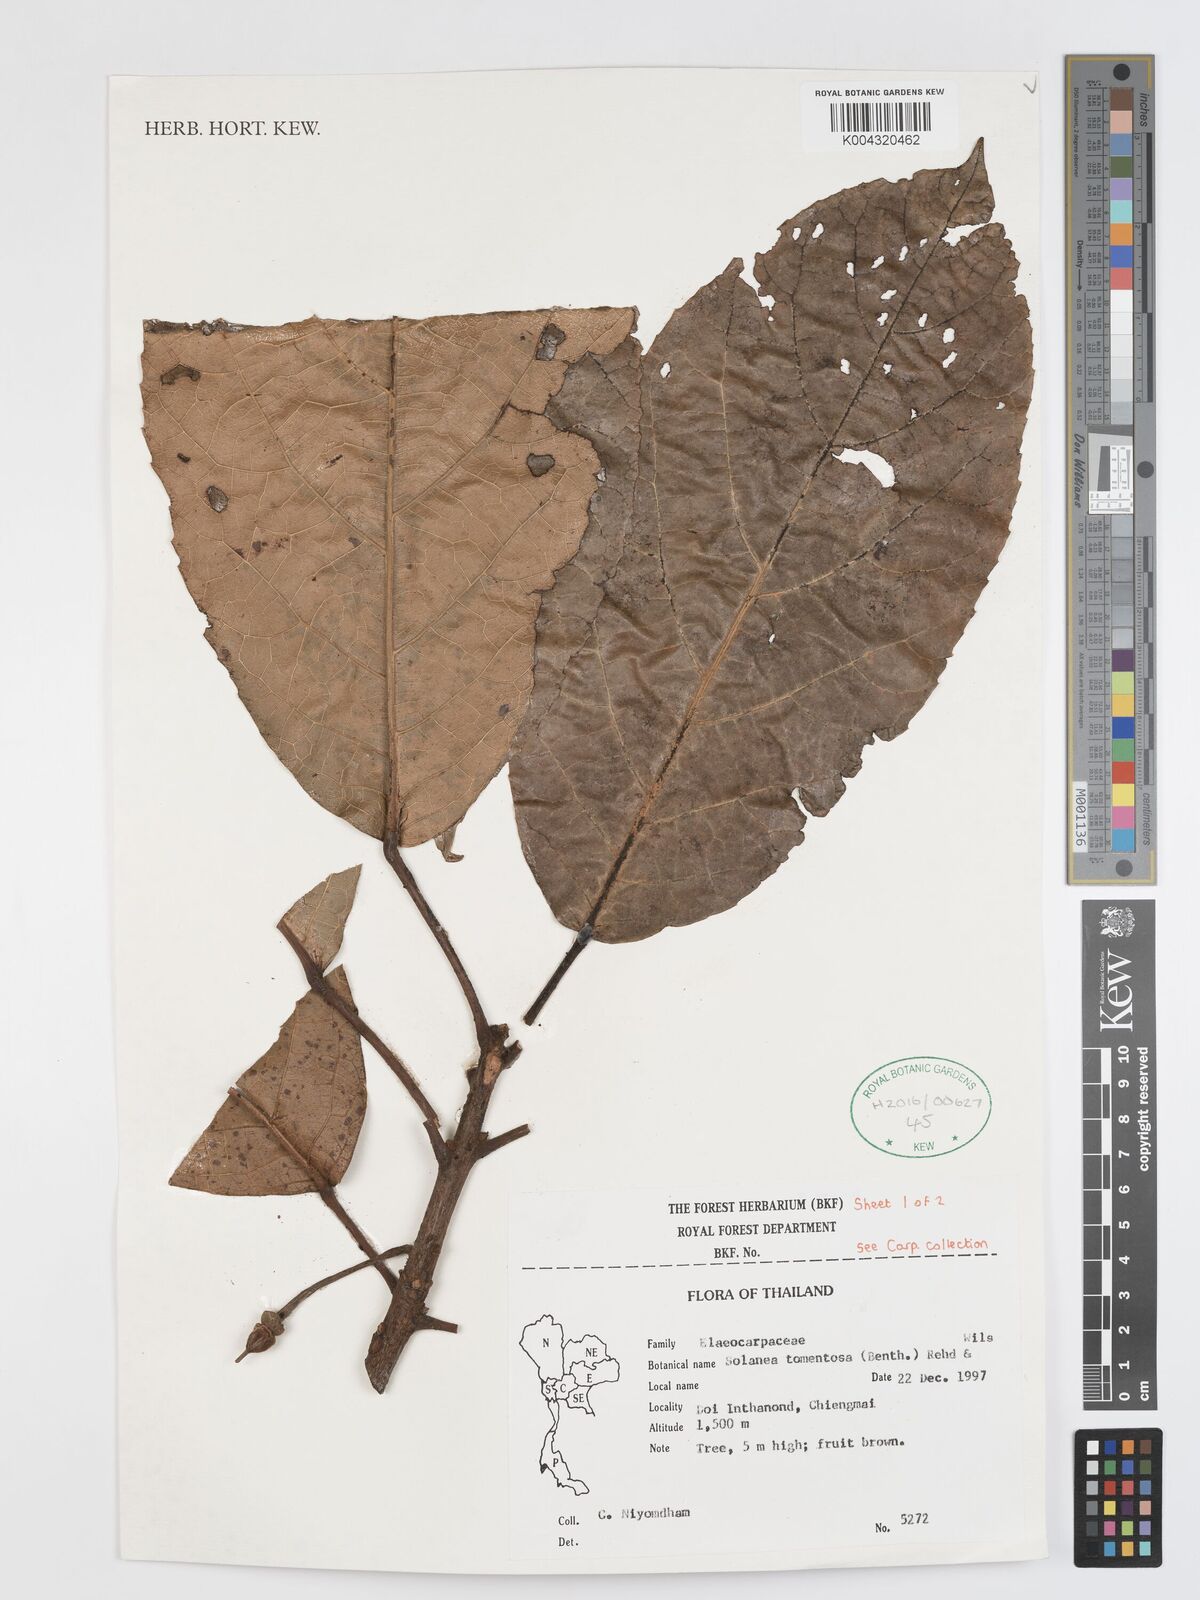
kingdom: Plantae
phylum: Tracheophyta
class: Magnoliopsida
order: Oxalidales
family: Elaeocarpaceae
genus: Sloanea
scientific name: Sloanea tomentosa
